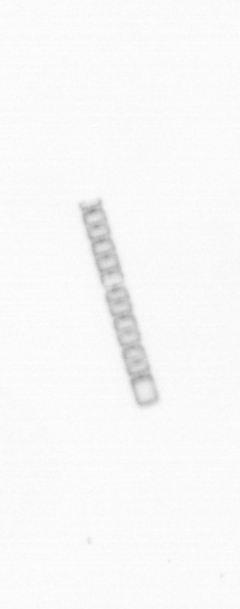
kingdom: Chromista
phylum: Ochrophyta
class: Bacillariophyceae
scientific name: Bacillariophyceae
